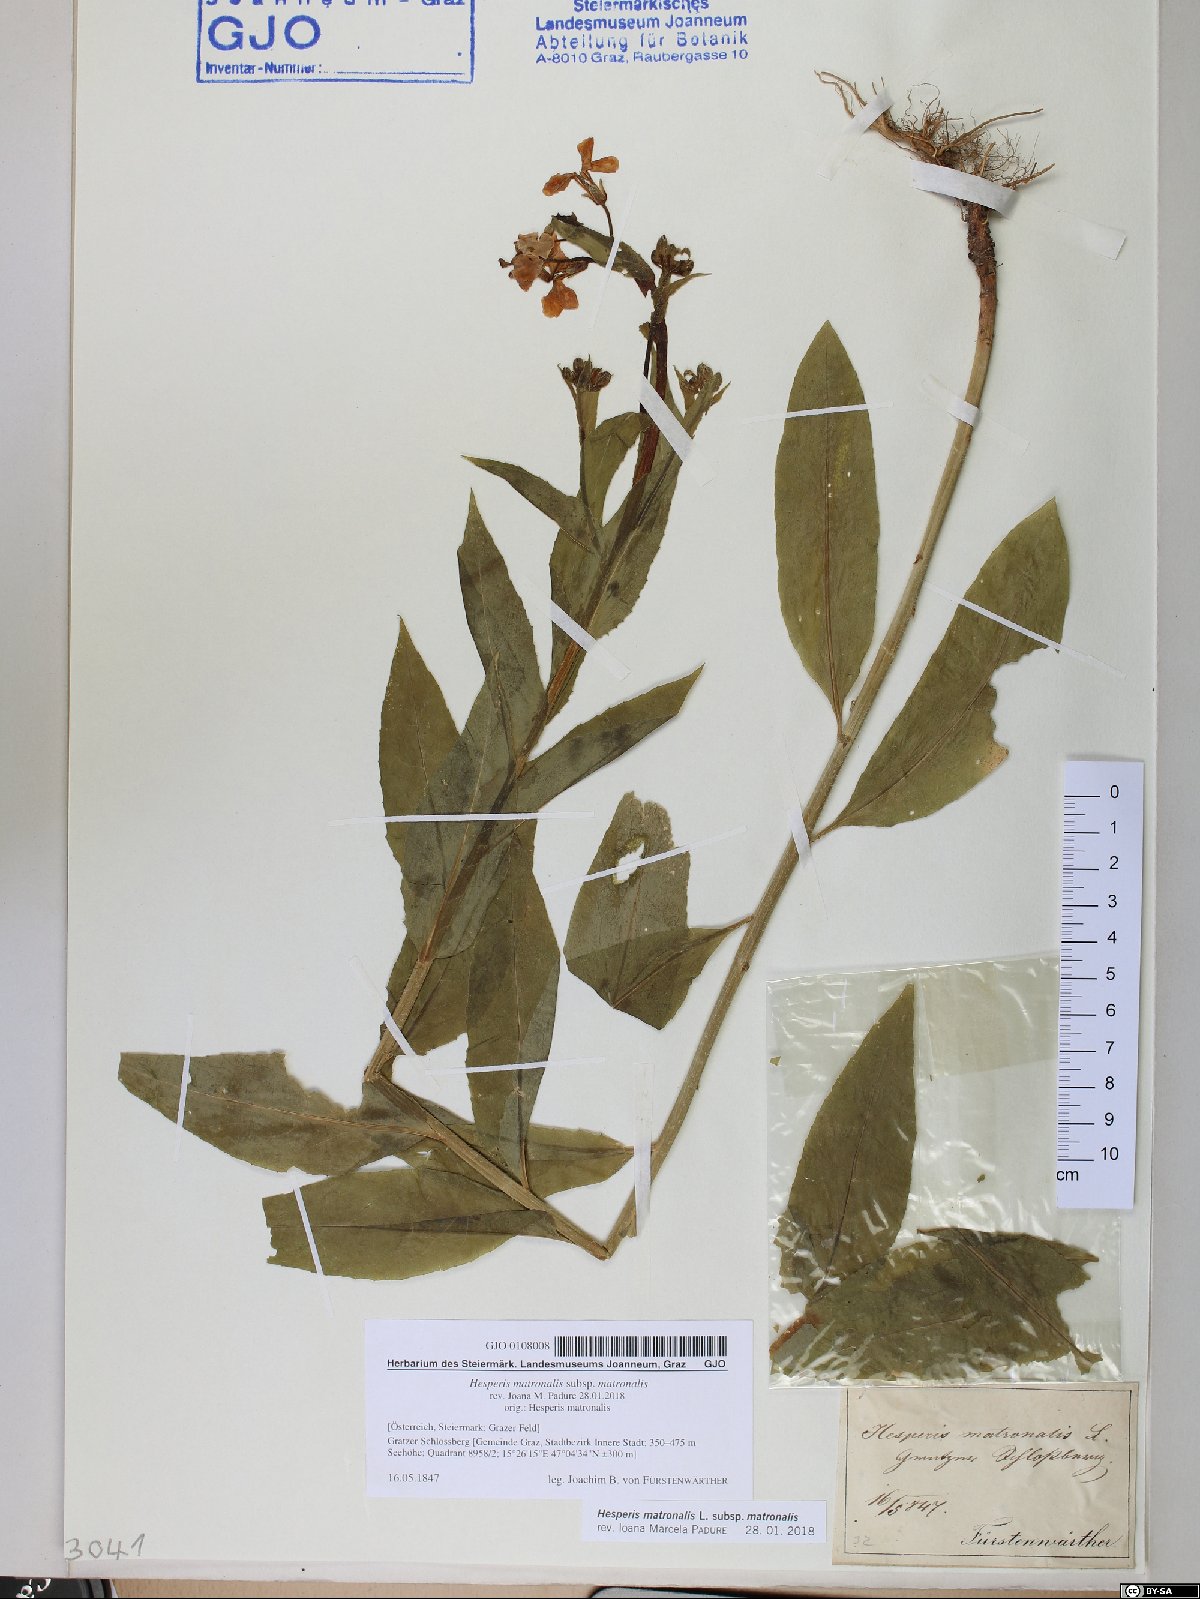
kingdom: Plantae
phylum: Tracheophyta
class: Magnoliopsida
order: Brassicales
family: Brassicaceae
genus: Hesperis
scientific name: Hesperis matronalis
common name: Dame's-violet
